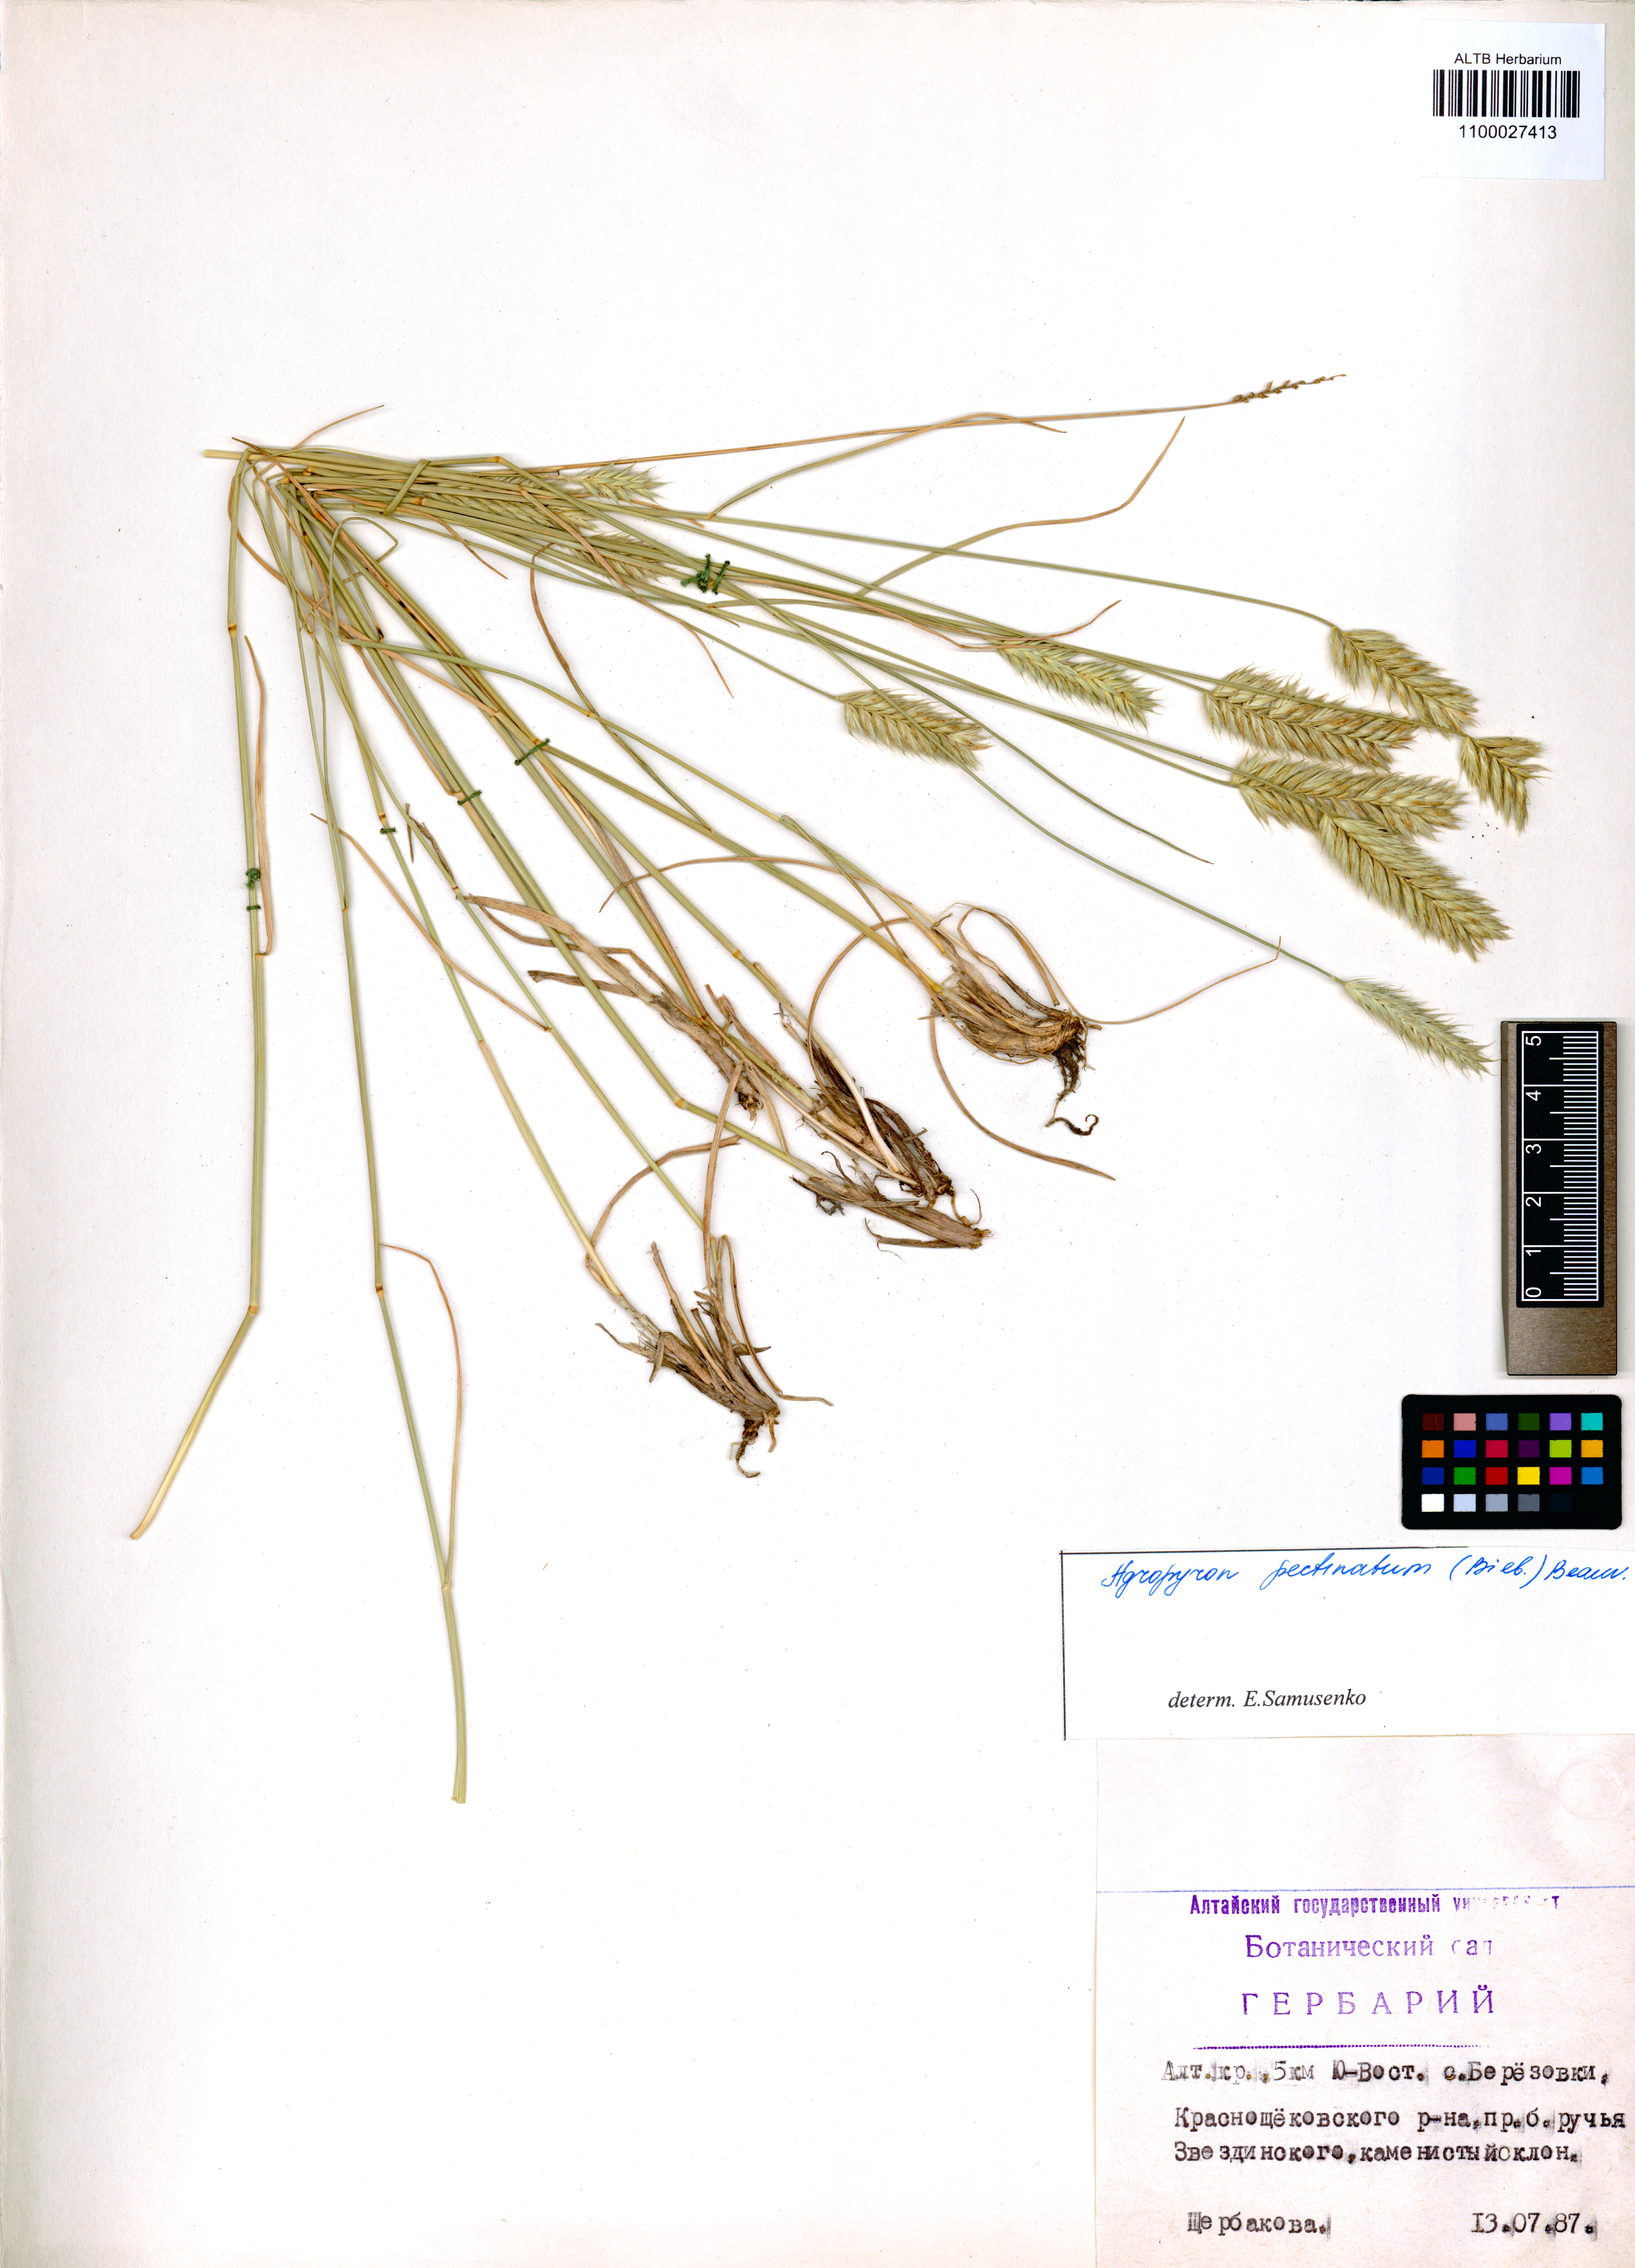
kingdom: Plantae
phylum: Tracheophyta
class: Liliopsida
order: Poales
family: Poaceae
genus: Agropyron
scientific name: Agropyron cristatum
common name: Crested wheatgrass
